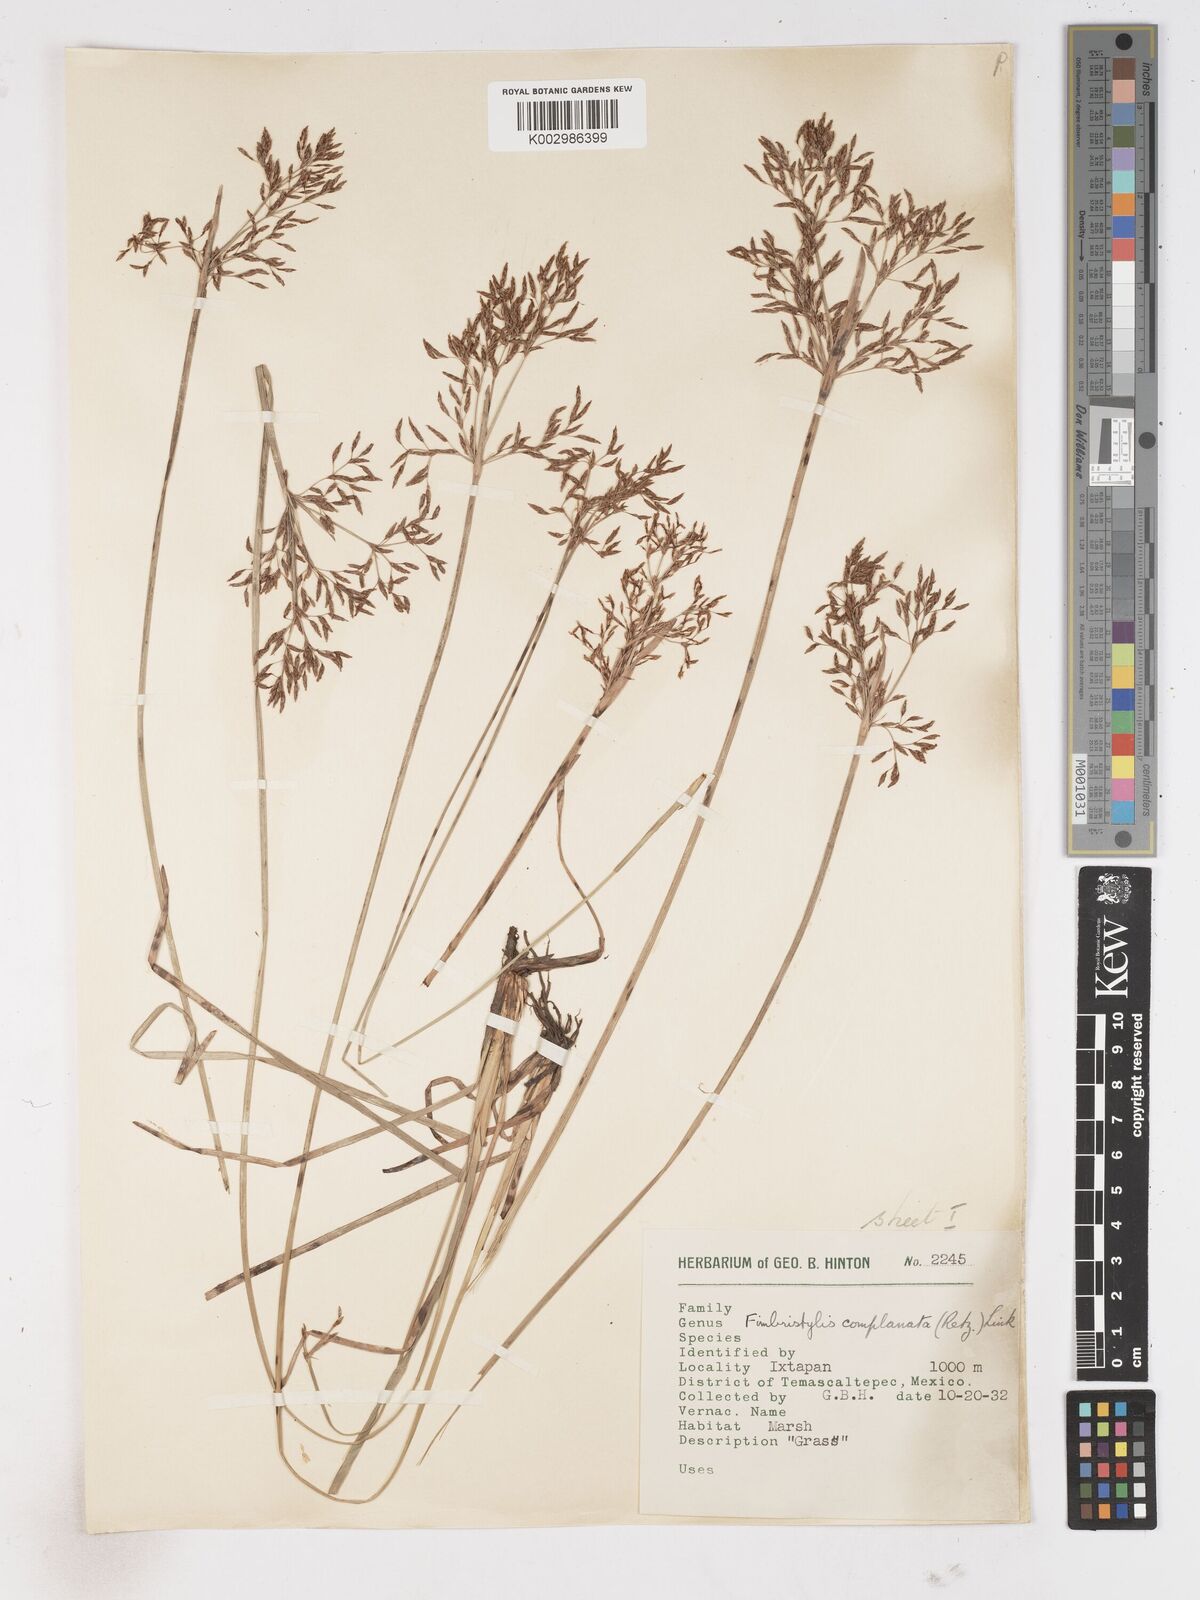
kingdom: Plantae
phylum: Tracheophyta
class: Liliopsida
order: Poales
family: Cyperaceae
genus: Fimbristylis
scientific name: Fimbristylis complanata
